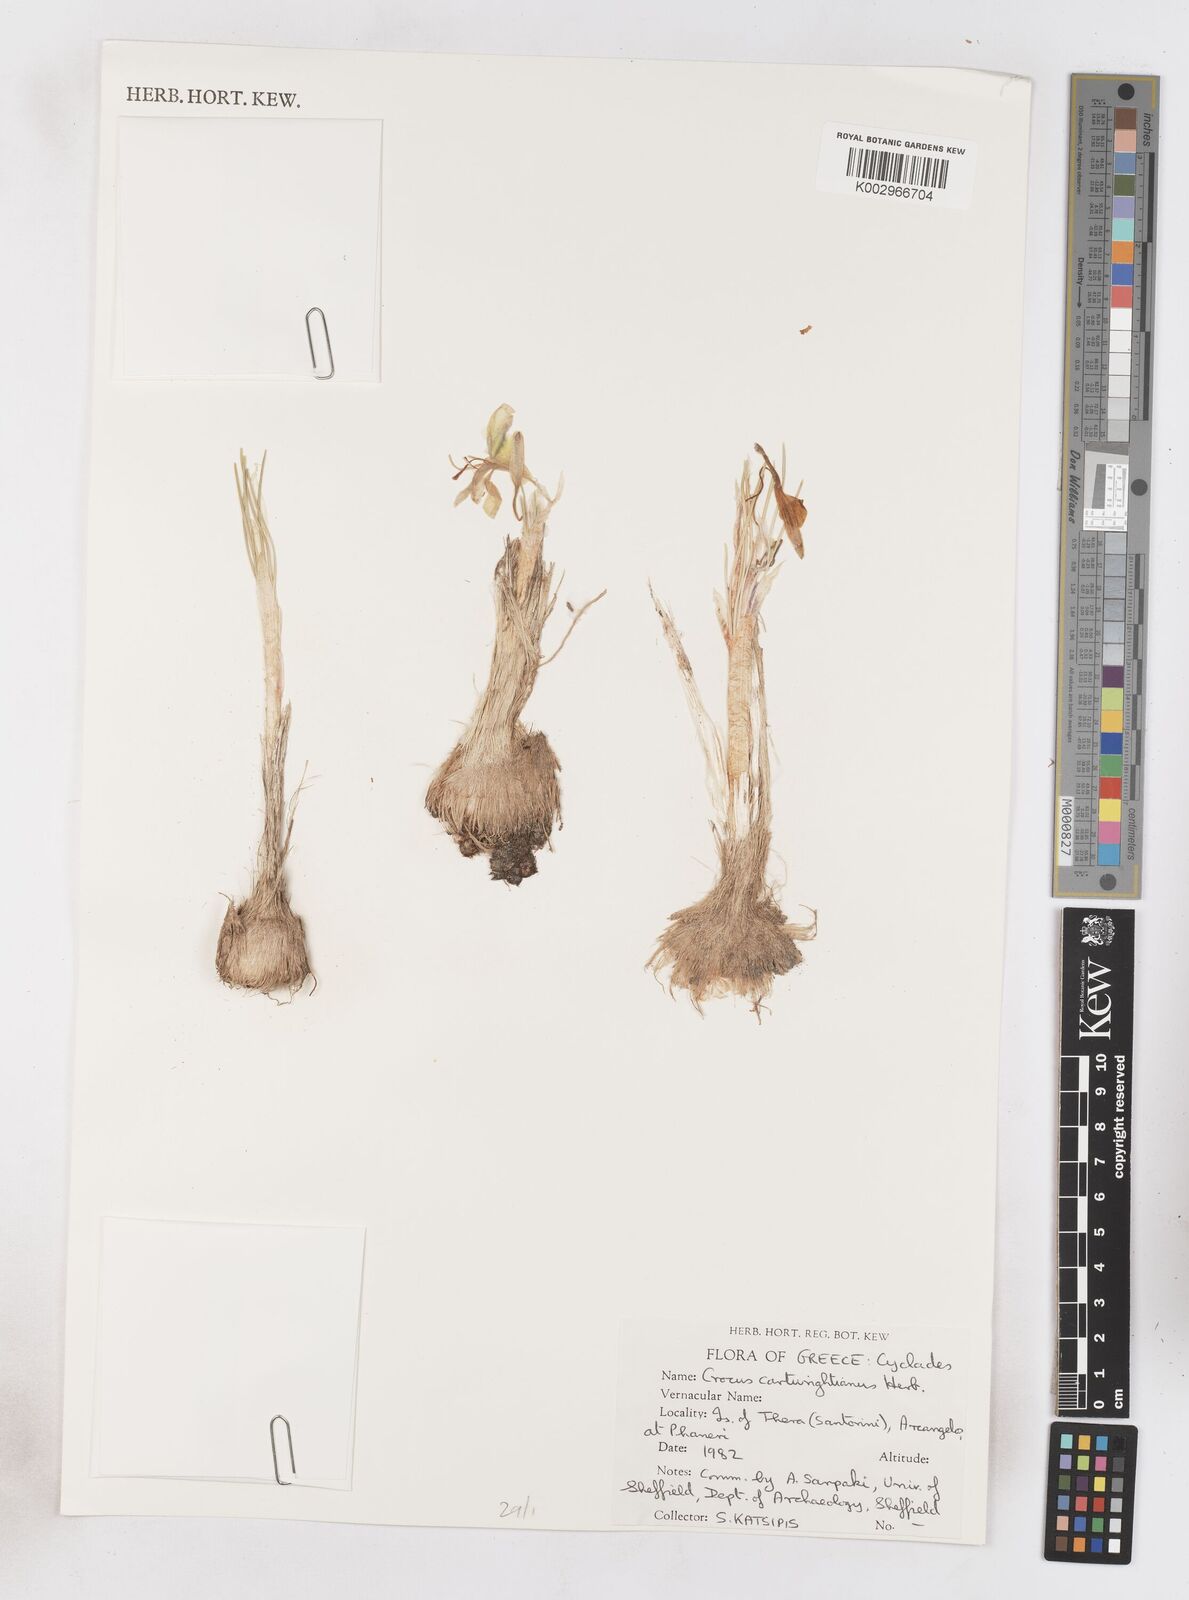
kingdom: Plantae
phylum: Tracheophyta
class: Liliopsida
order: Asparagales
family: Iridaceae
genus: Crocus
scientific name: Crocus cartwrightianus
